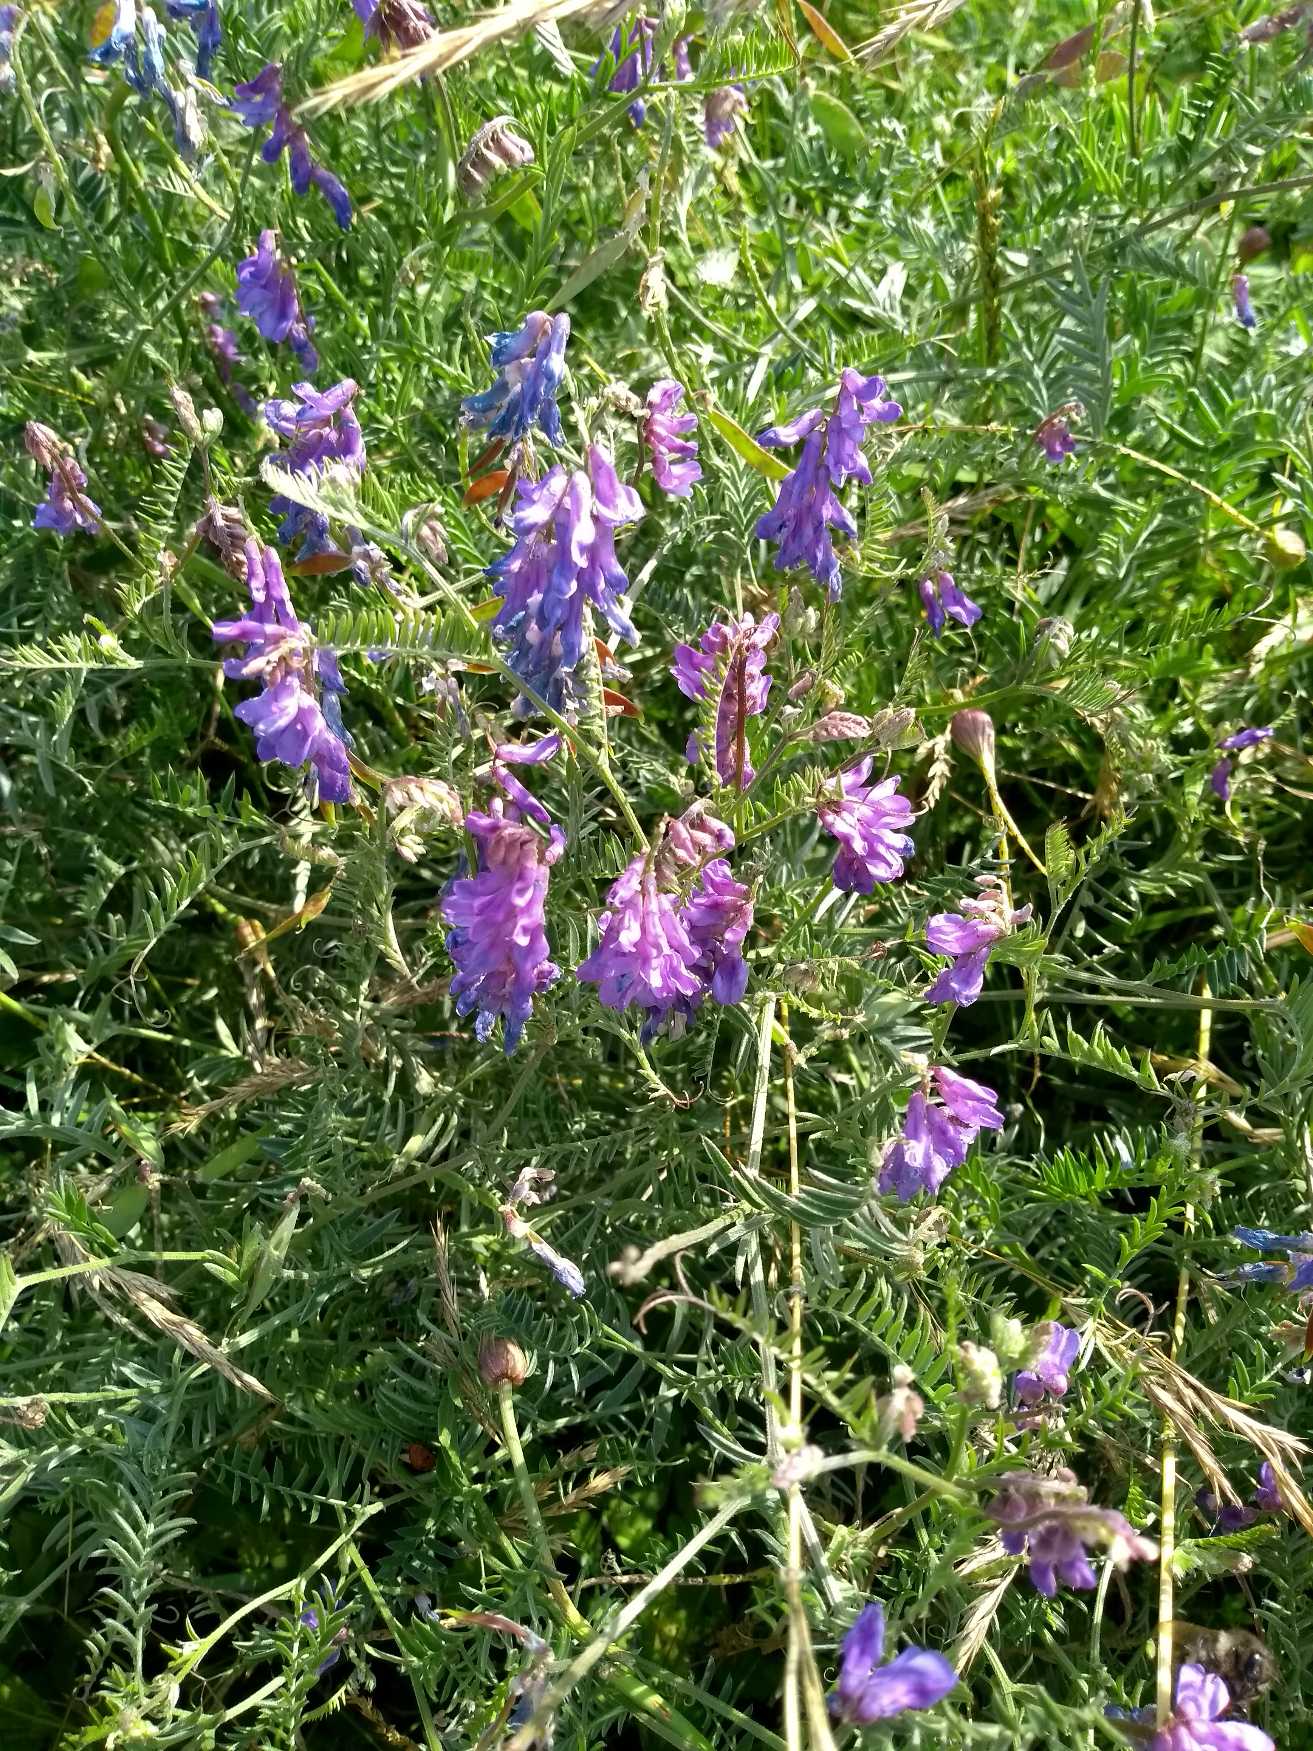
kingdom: Plantae
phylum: Tracheophyta
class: Magnoliopsida
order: Fabales
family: Fabaceae
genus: Vicia
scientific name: Vicia cracca
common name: Muse-vikke
